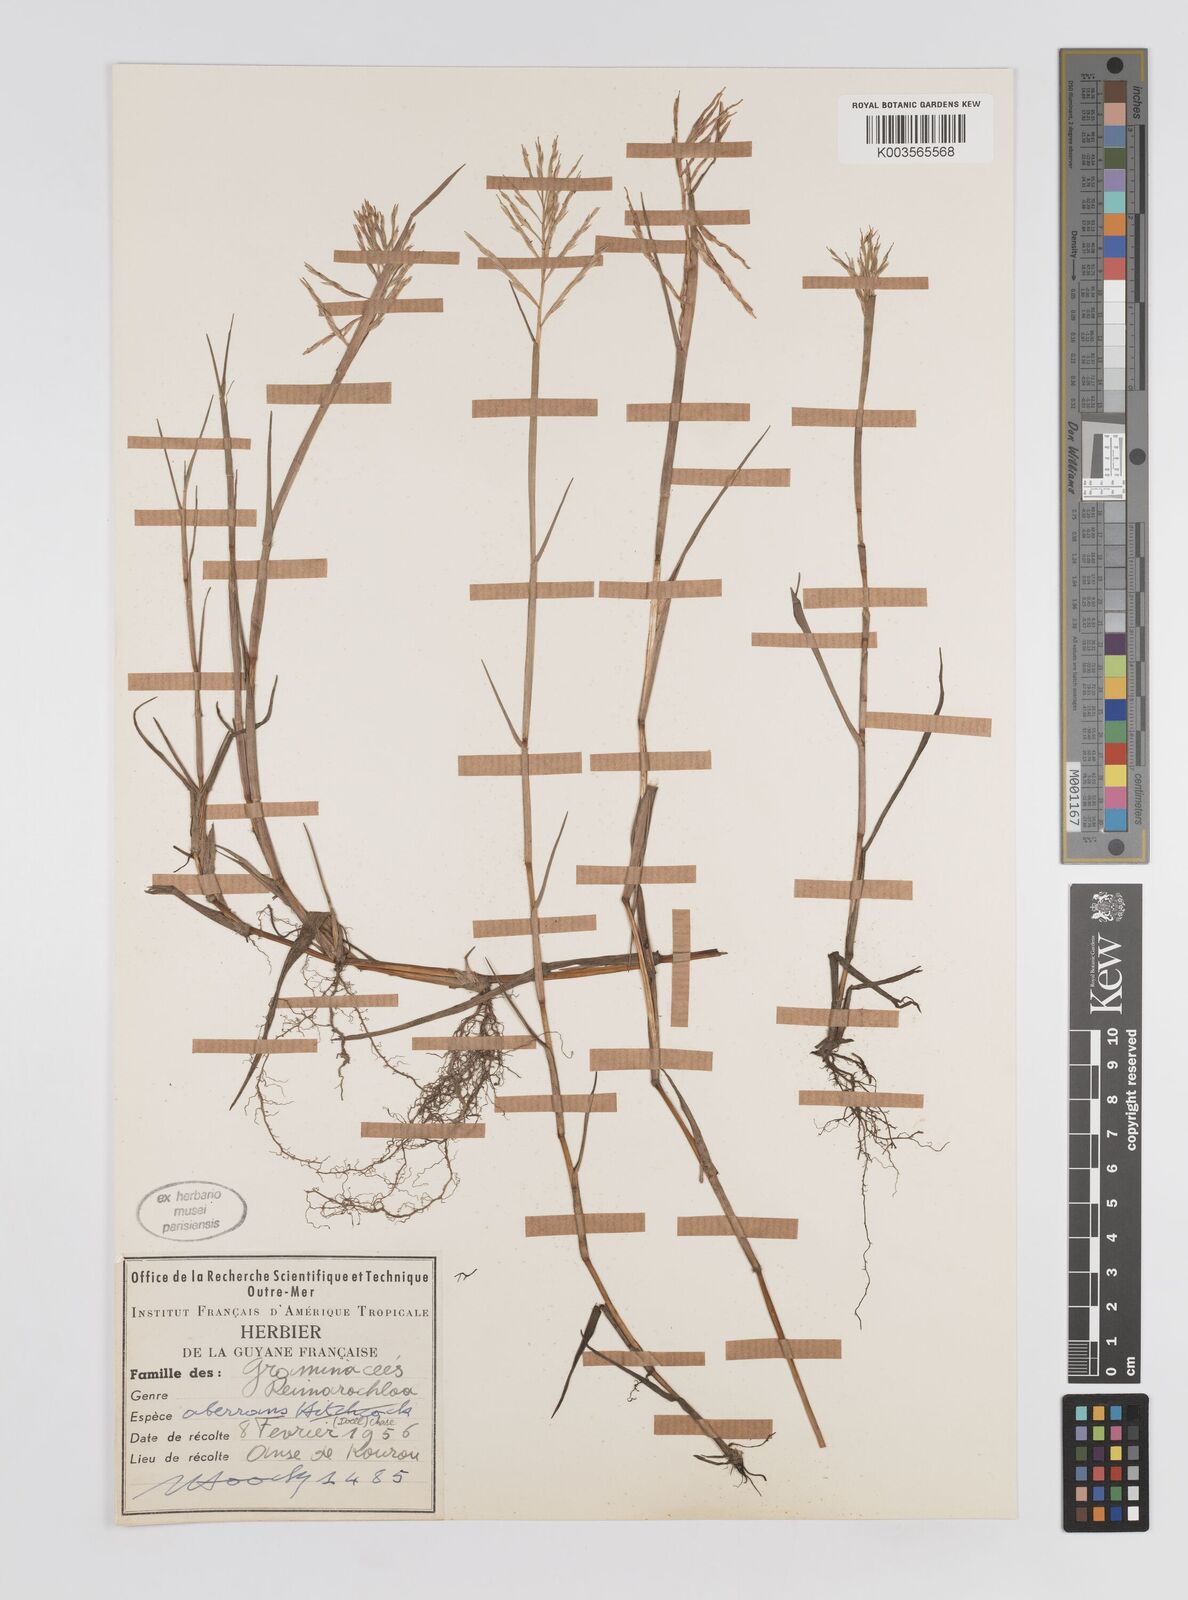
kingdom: Plantae
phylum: Tracheophyta
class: Liliopsida
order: Poales
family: Poaceae
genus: Paspalum
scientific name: Paspalum aberrans
